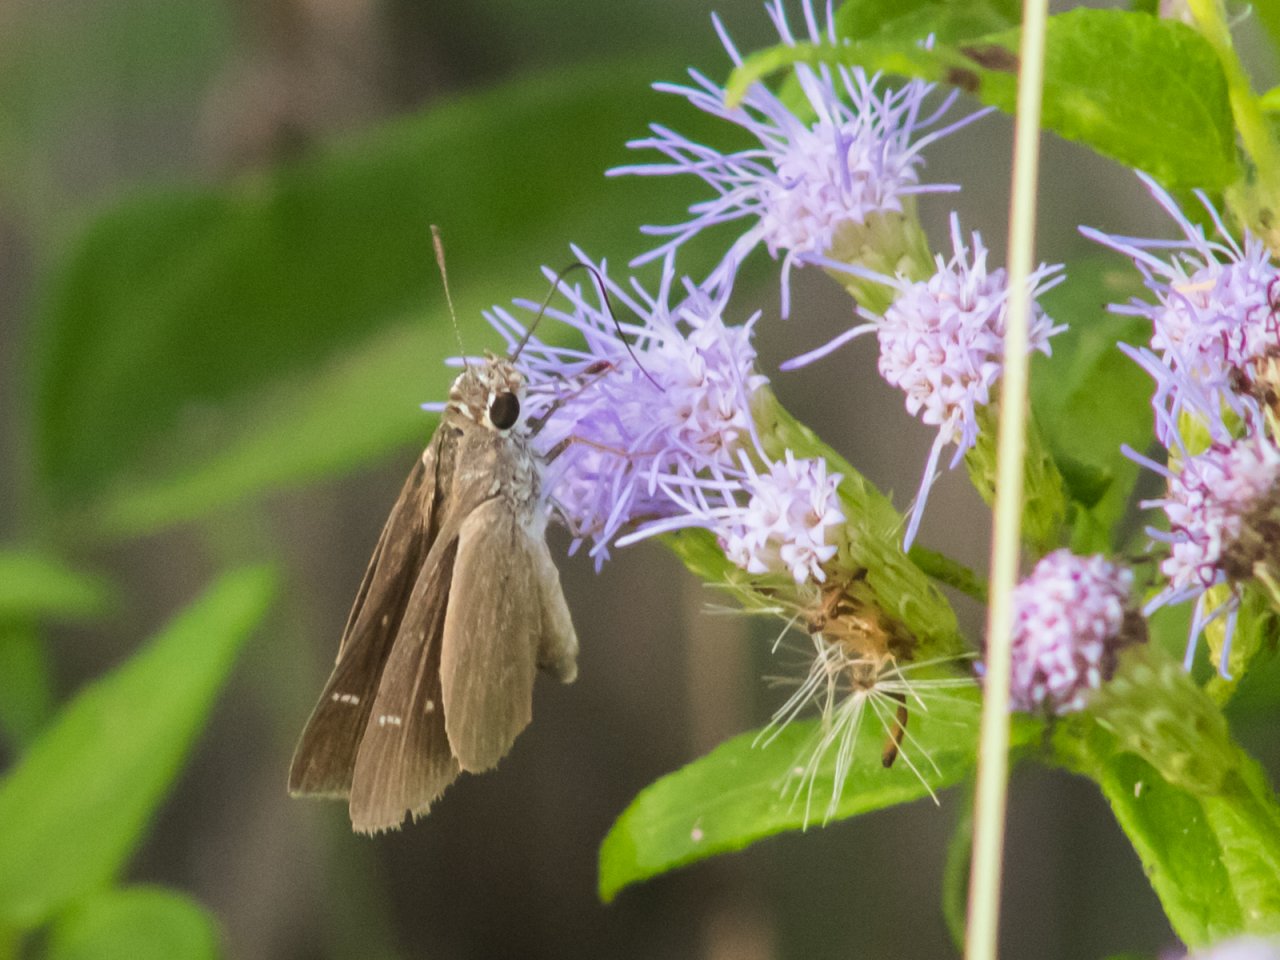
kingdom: Animalia
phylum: Arthropoda
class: Insecta
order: Lepidoptera
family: Hesperiidae
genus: Lerodea
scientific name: Lerodea eufala
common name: Eufala Skipper
